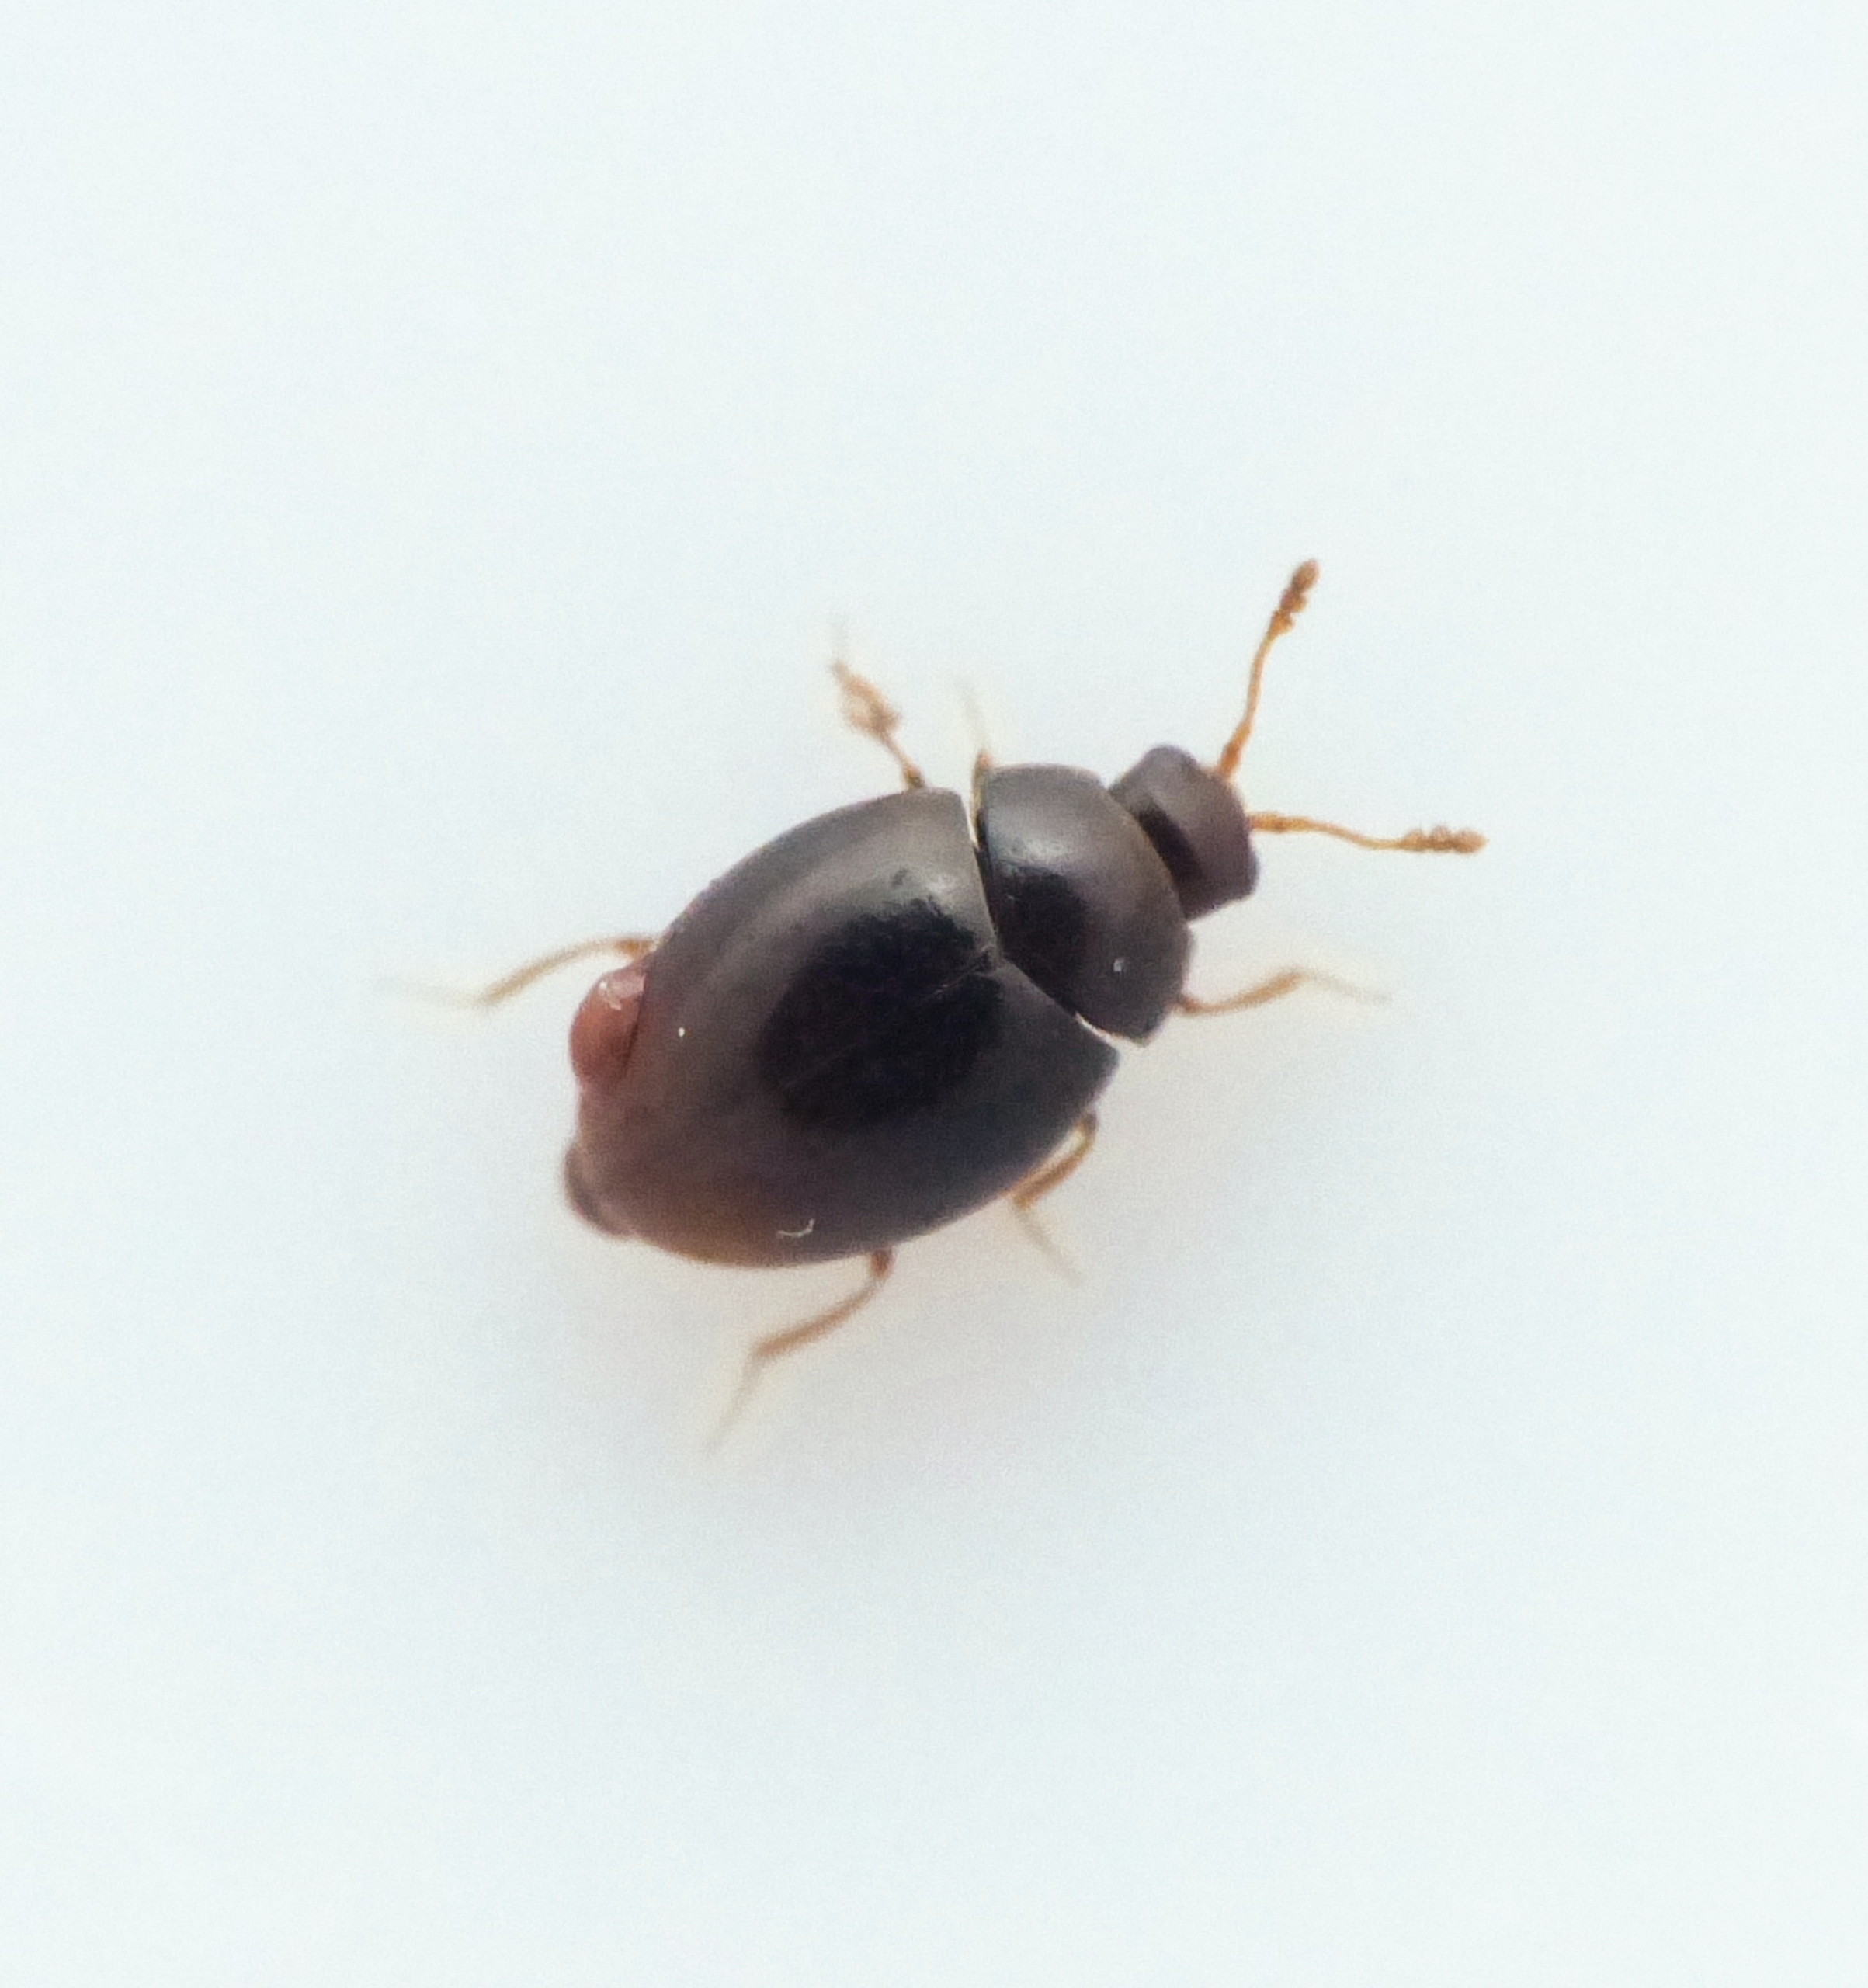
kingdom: Animalia
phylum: Arthropoda
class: Insecta
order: Coleoptera
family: Cryptophagidae
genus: Ephistemus
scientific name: Ephistemus globulus
